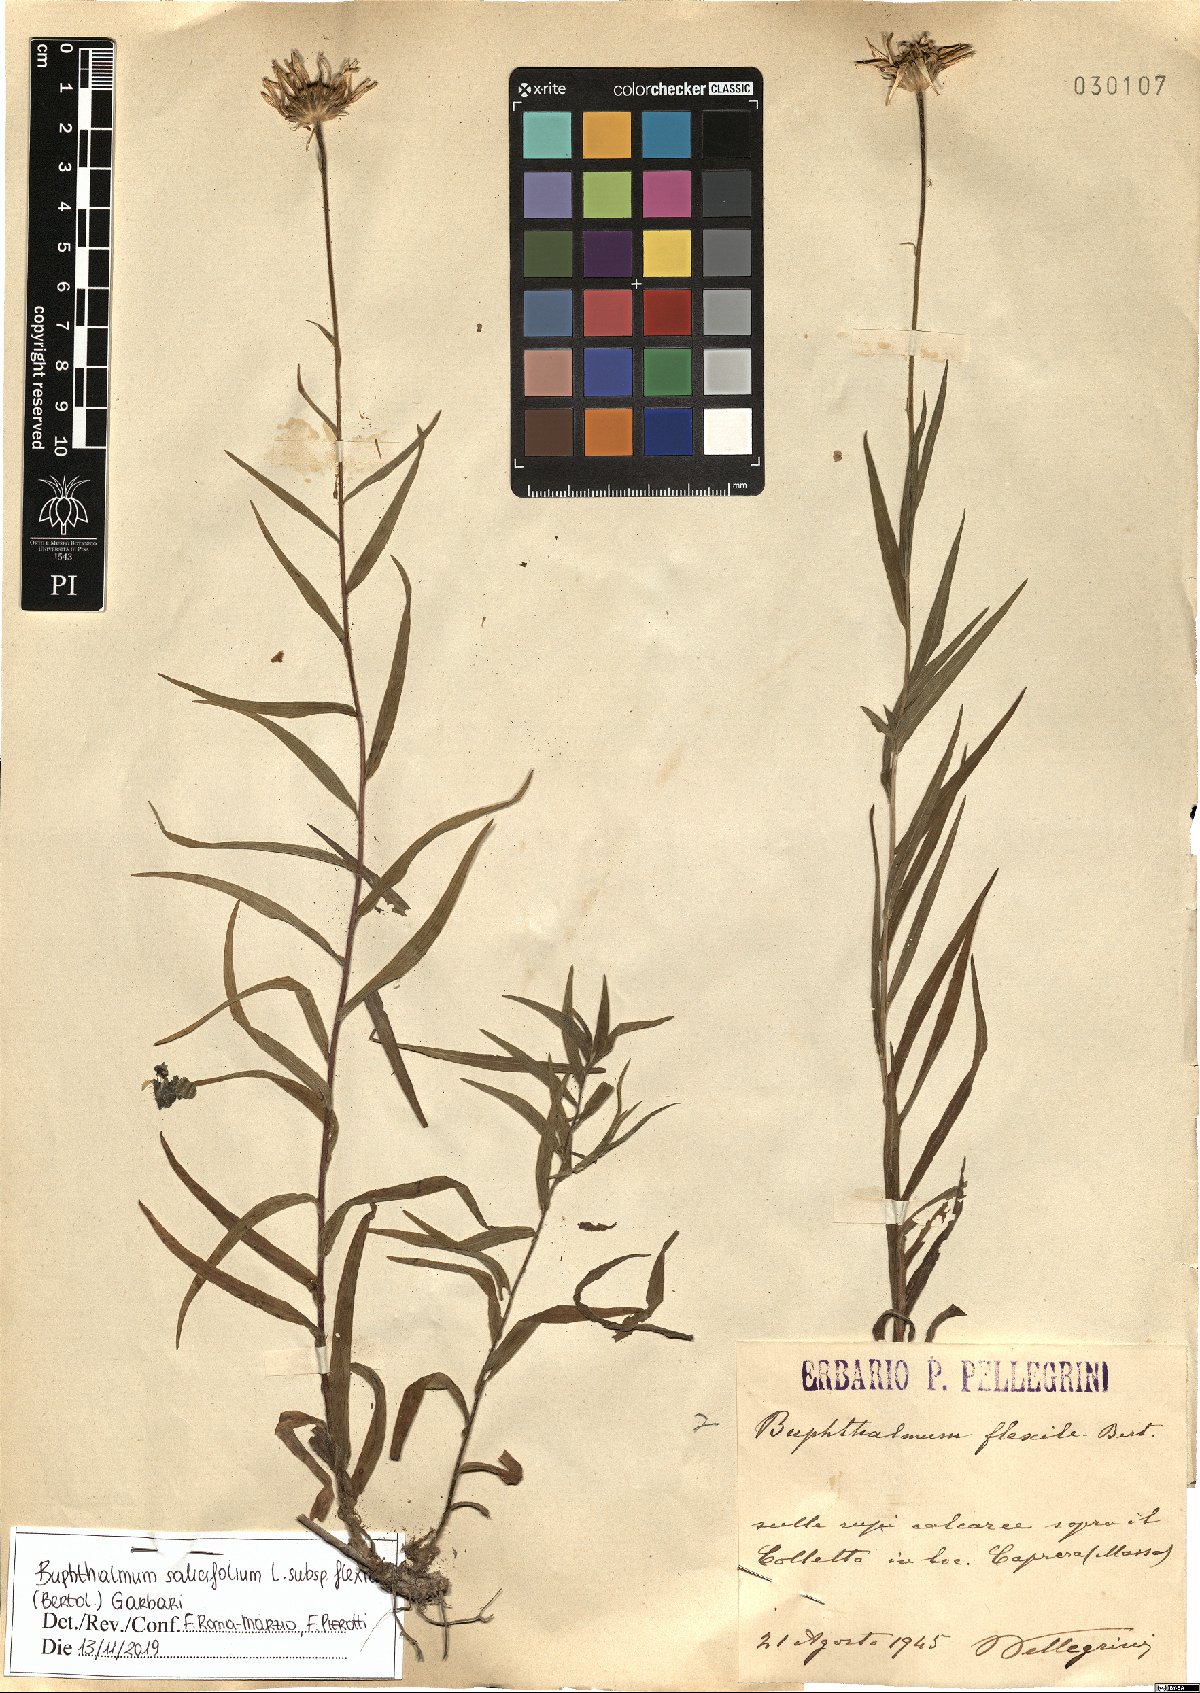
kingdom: Plantae
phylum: Tracheophyta
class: Magnoliopsida
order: Asterales
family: Asteraceae
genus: Buphthalmum
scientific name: Buphthalmum salicifolium
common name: Willow-leaved yellow-oxeye
